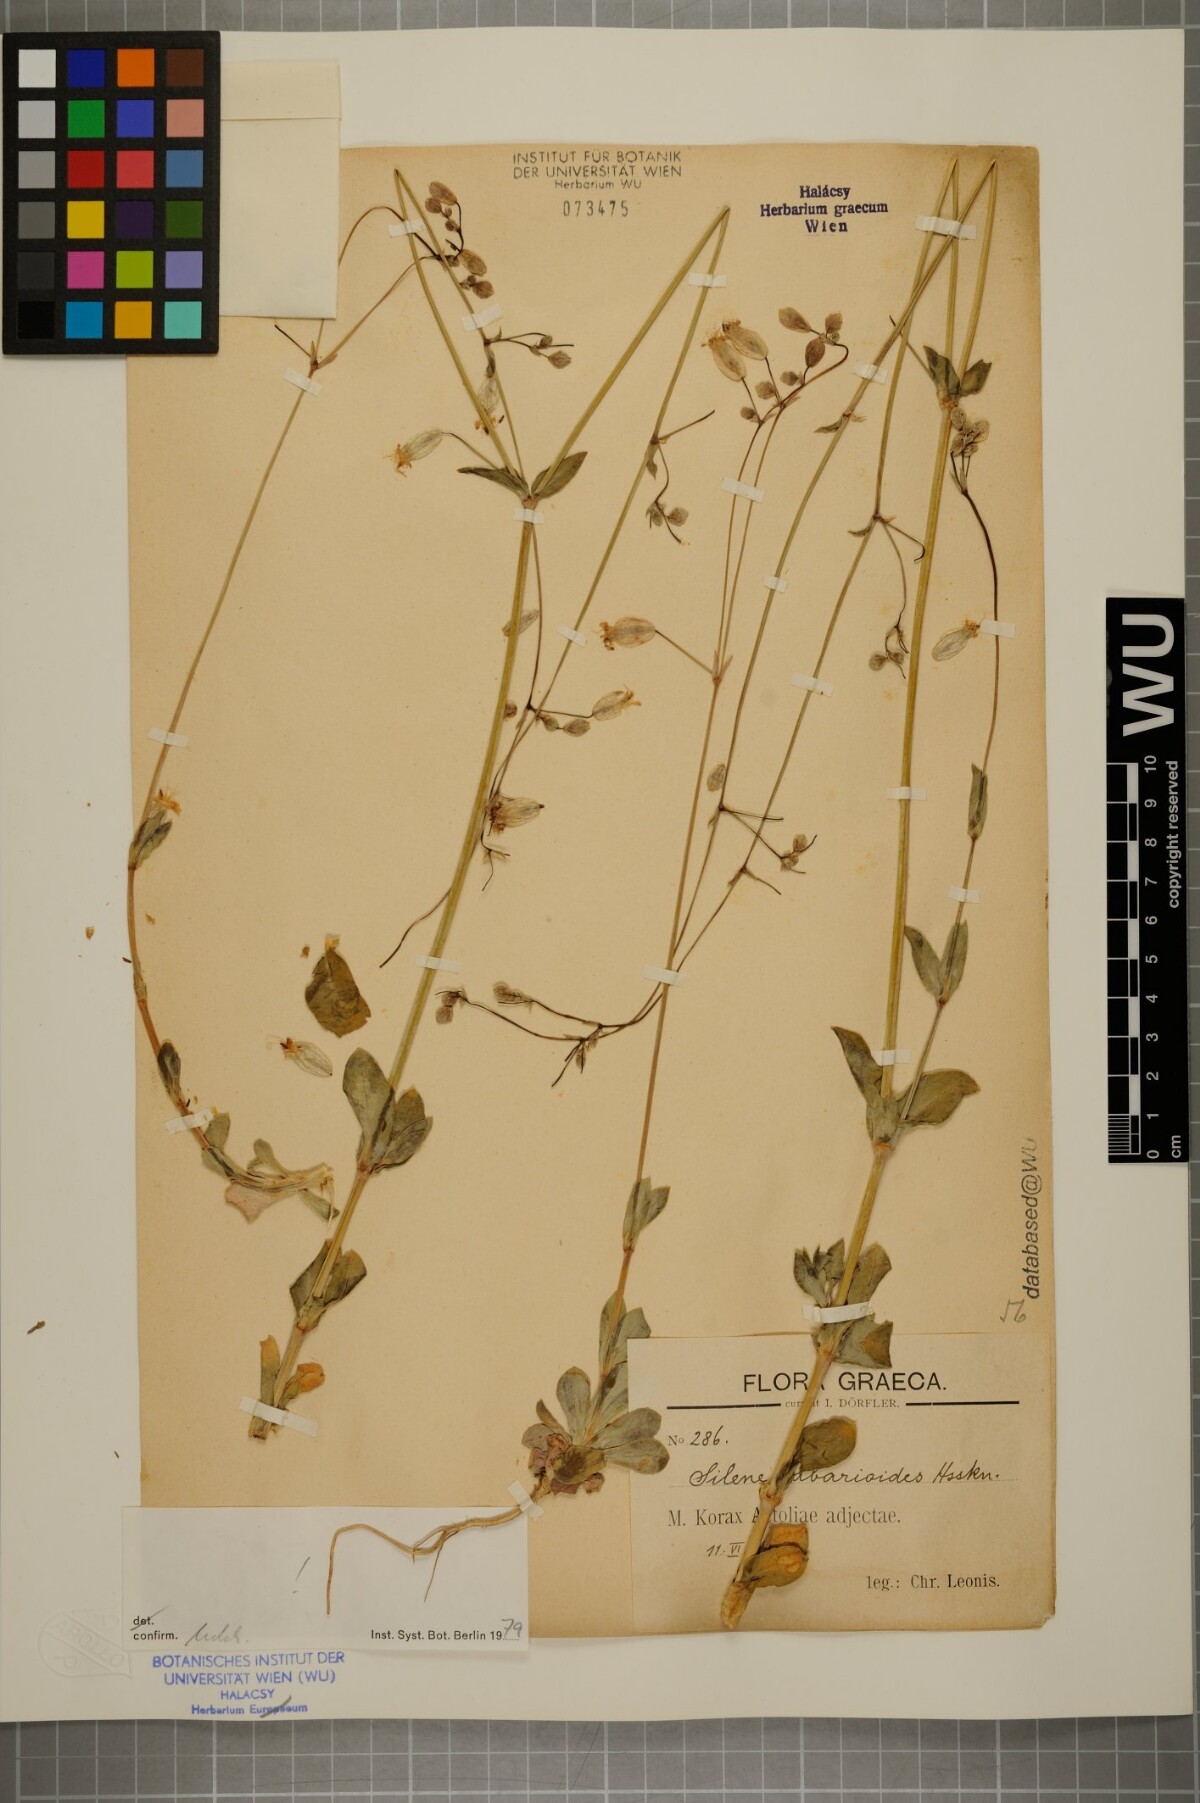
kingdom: Plantae
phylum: Tracheophyta
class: Magnoliopsida
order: Caryophyllales
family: Caryophyllaceae
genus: Silene
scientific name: Silene fabarioides
